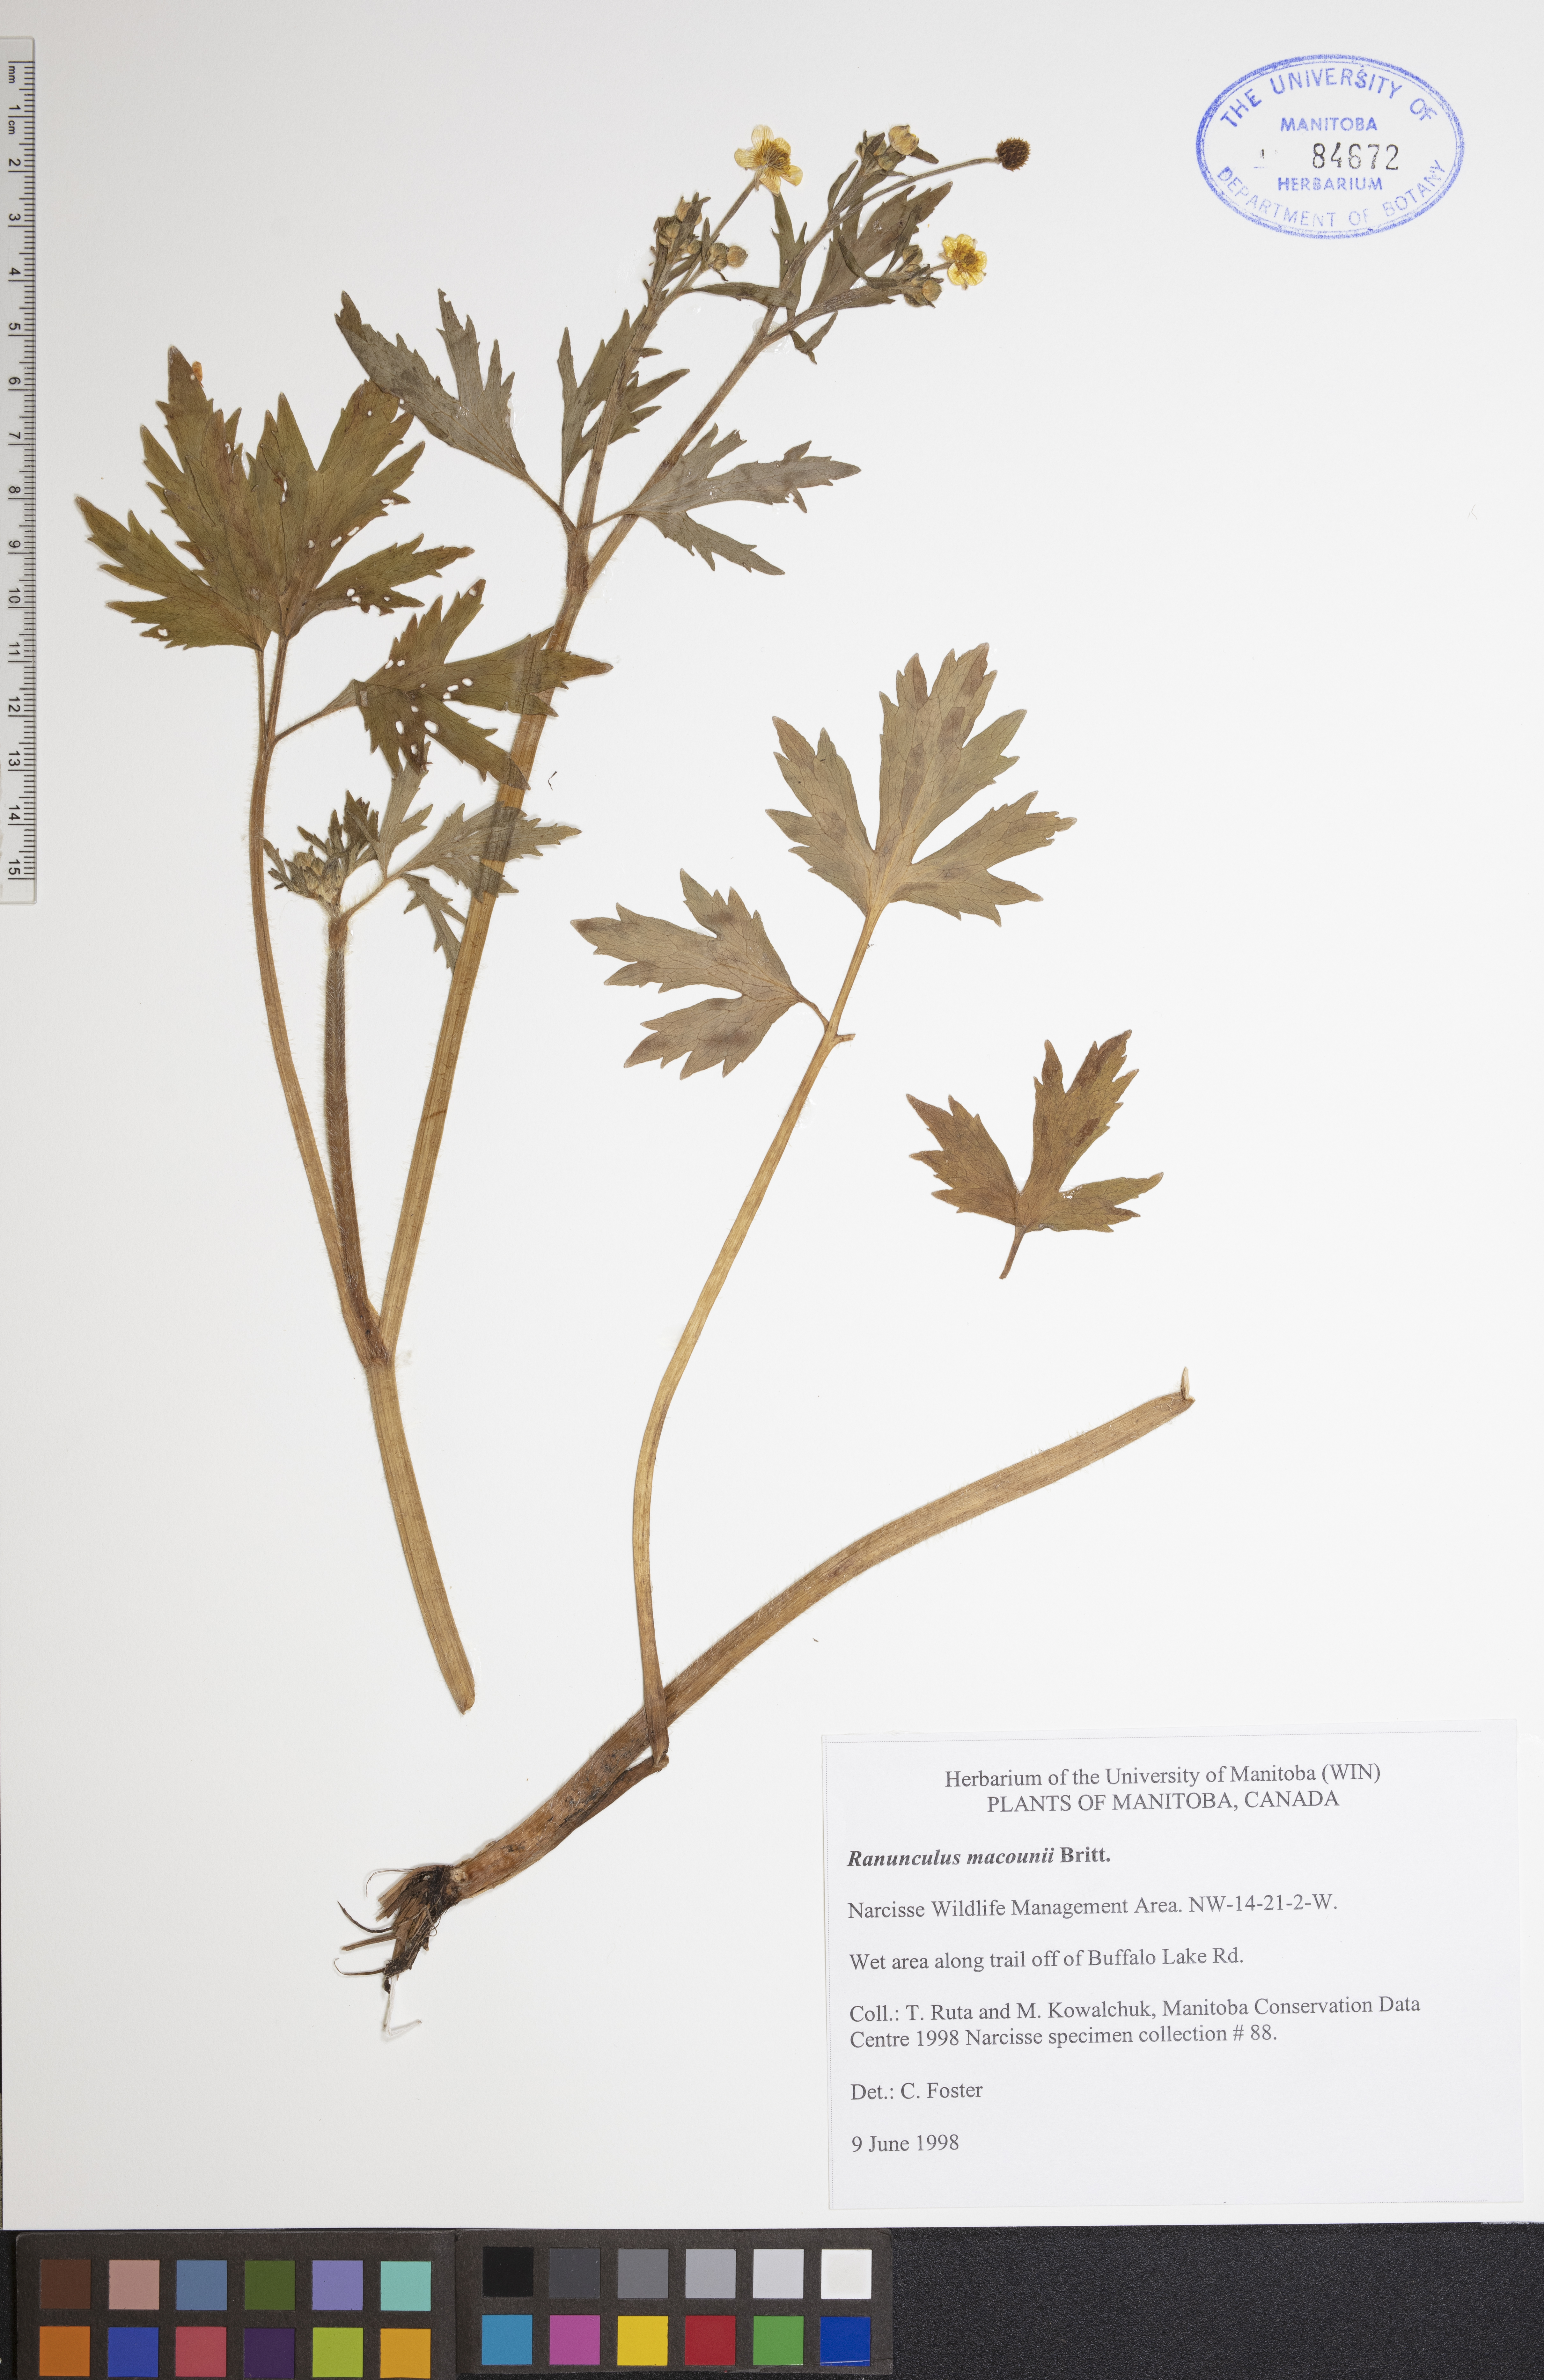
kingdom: Plantae
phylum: Tracheophyta
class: Magnoliopsida
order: Ranunculales
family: Ranunculaceae
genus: Ranunculus
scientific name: Ranunculus macounii
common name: Macoun's buttercup
